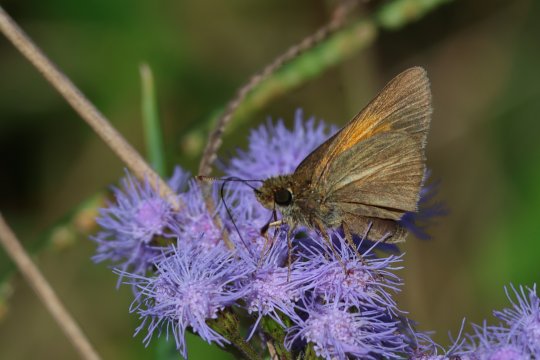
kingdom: Animalia
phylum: Arthropoda
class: Insecta
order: Lepidoptera
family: Hesperiidae
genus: Poanes
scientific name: Poanes aaroni
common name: Aaron's Skipper
